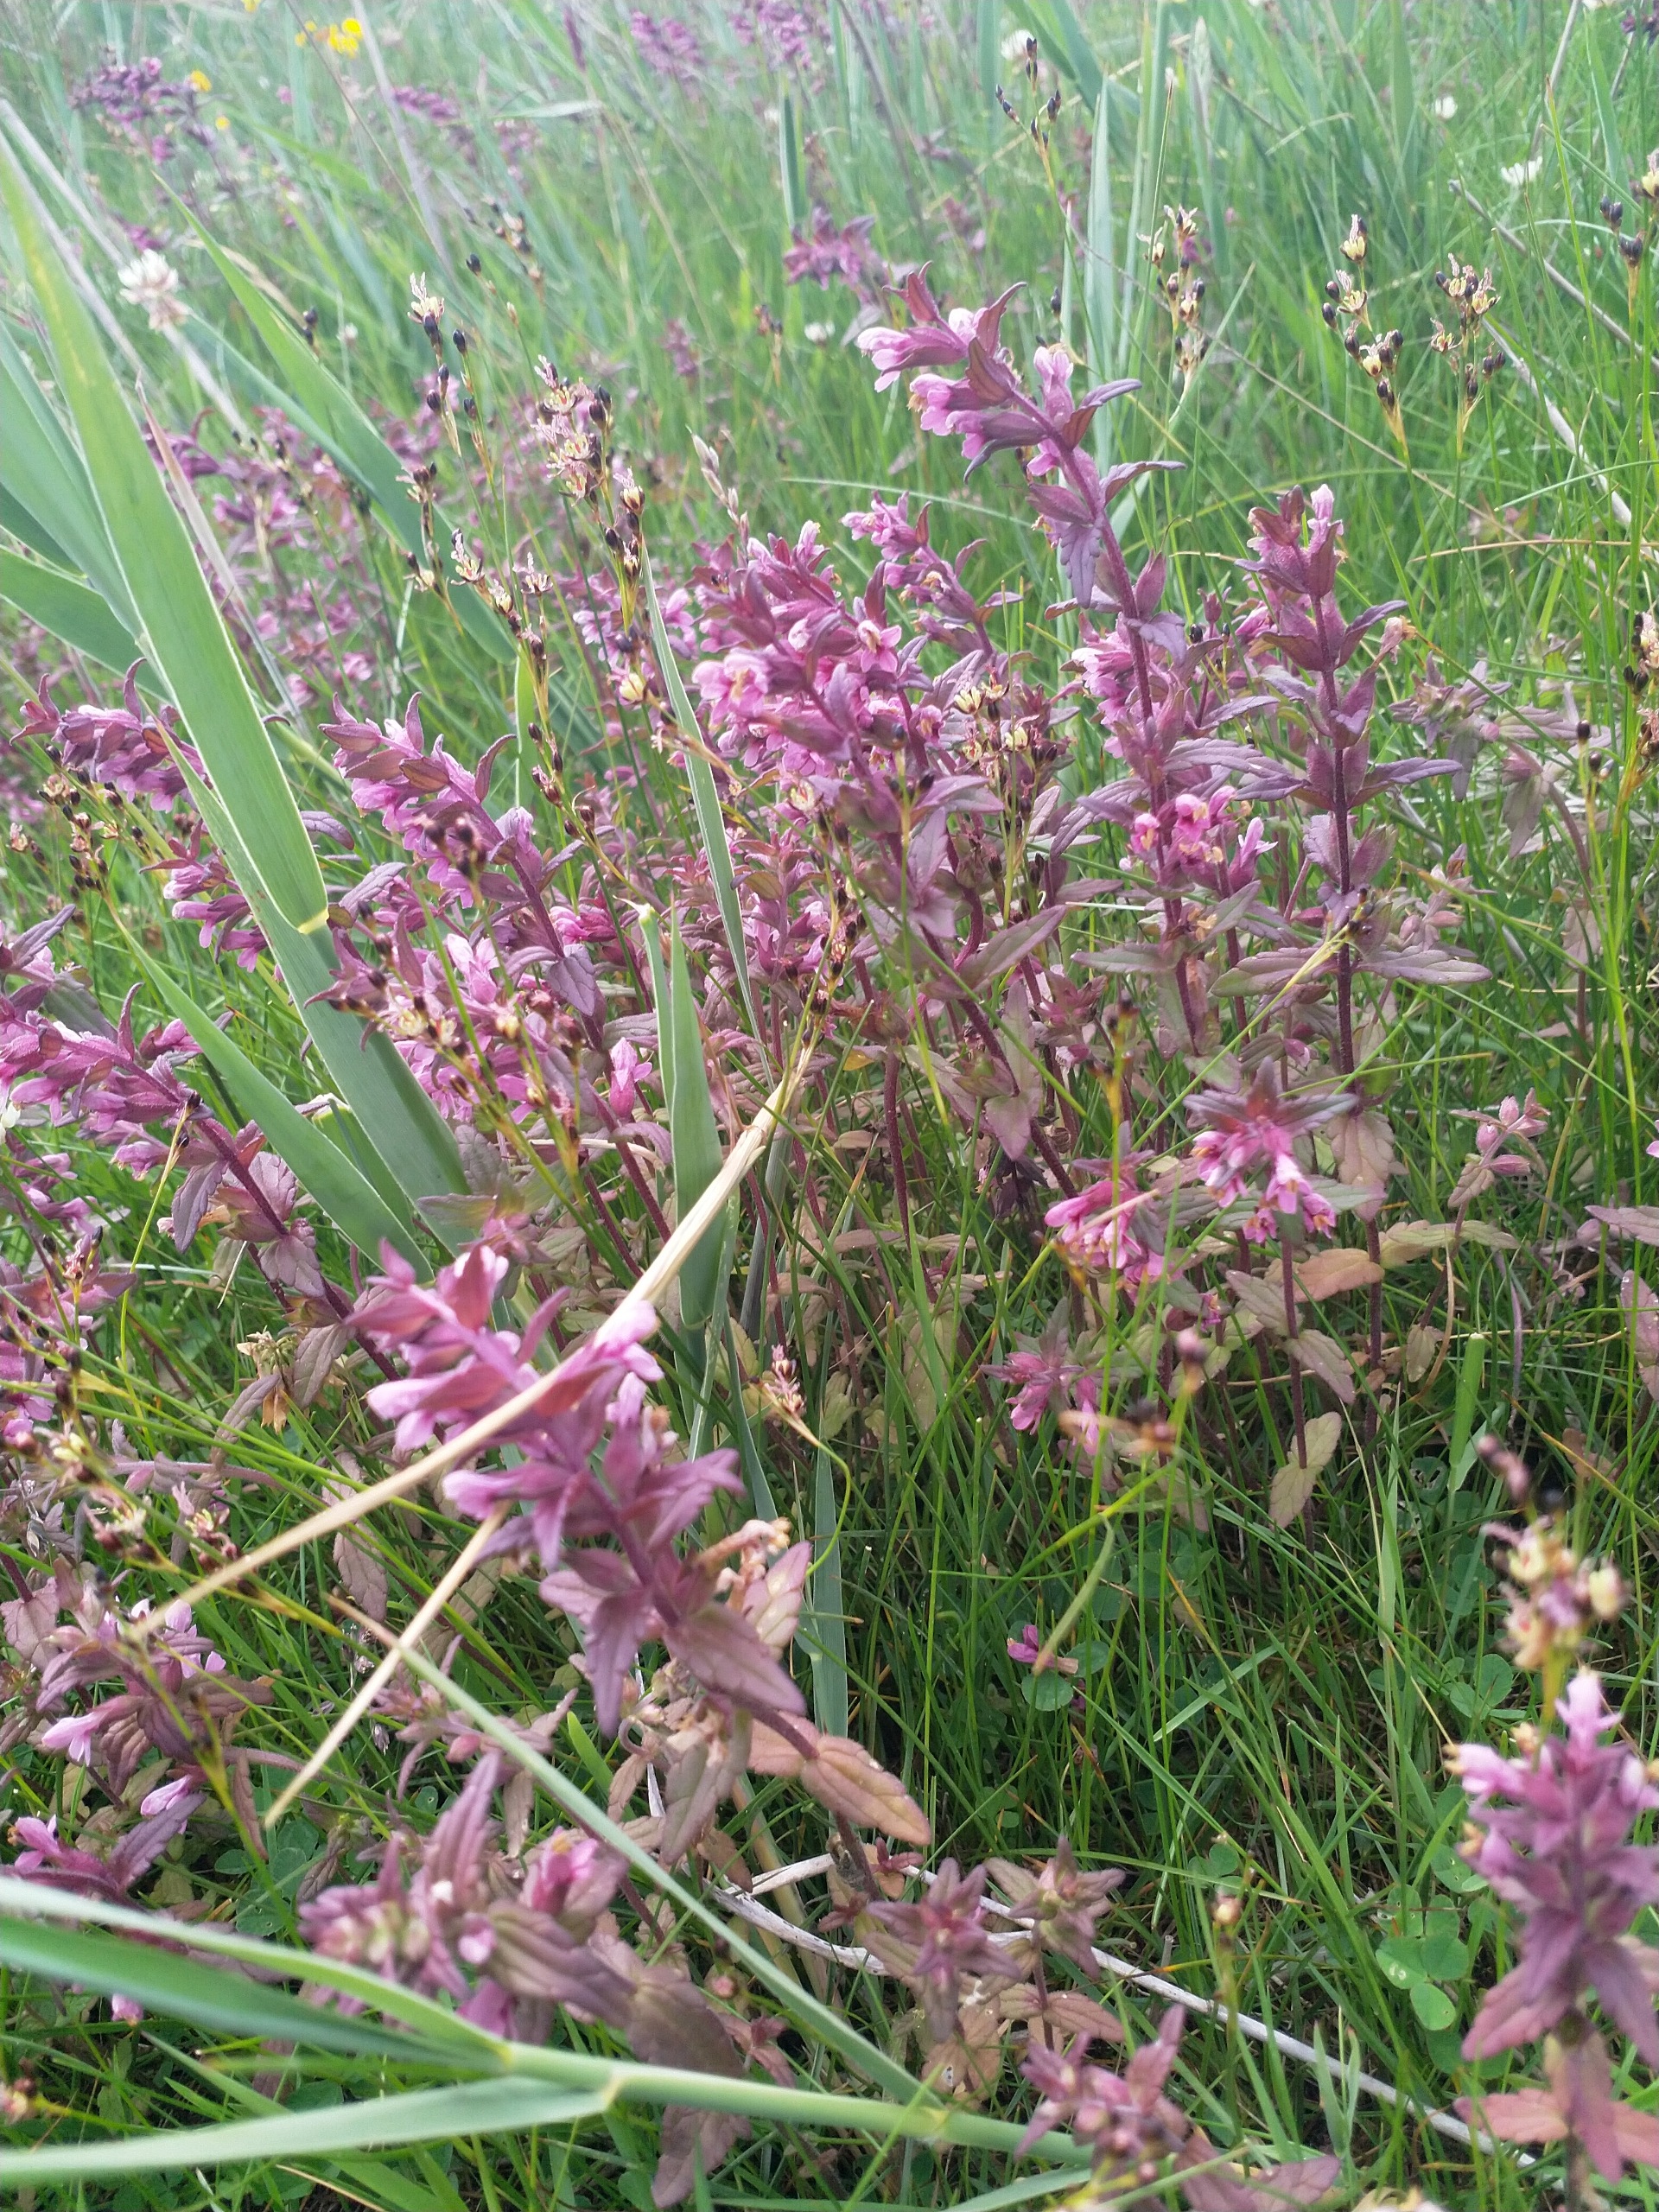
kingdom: Plantae
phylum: Tracheophyta
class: Magnoliopsida
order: Lamiales
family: Orobanchaceae
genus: Odontites
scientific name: Odontites litoralis
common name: Strand-rødtop
